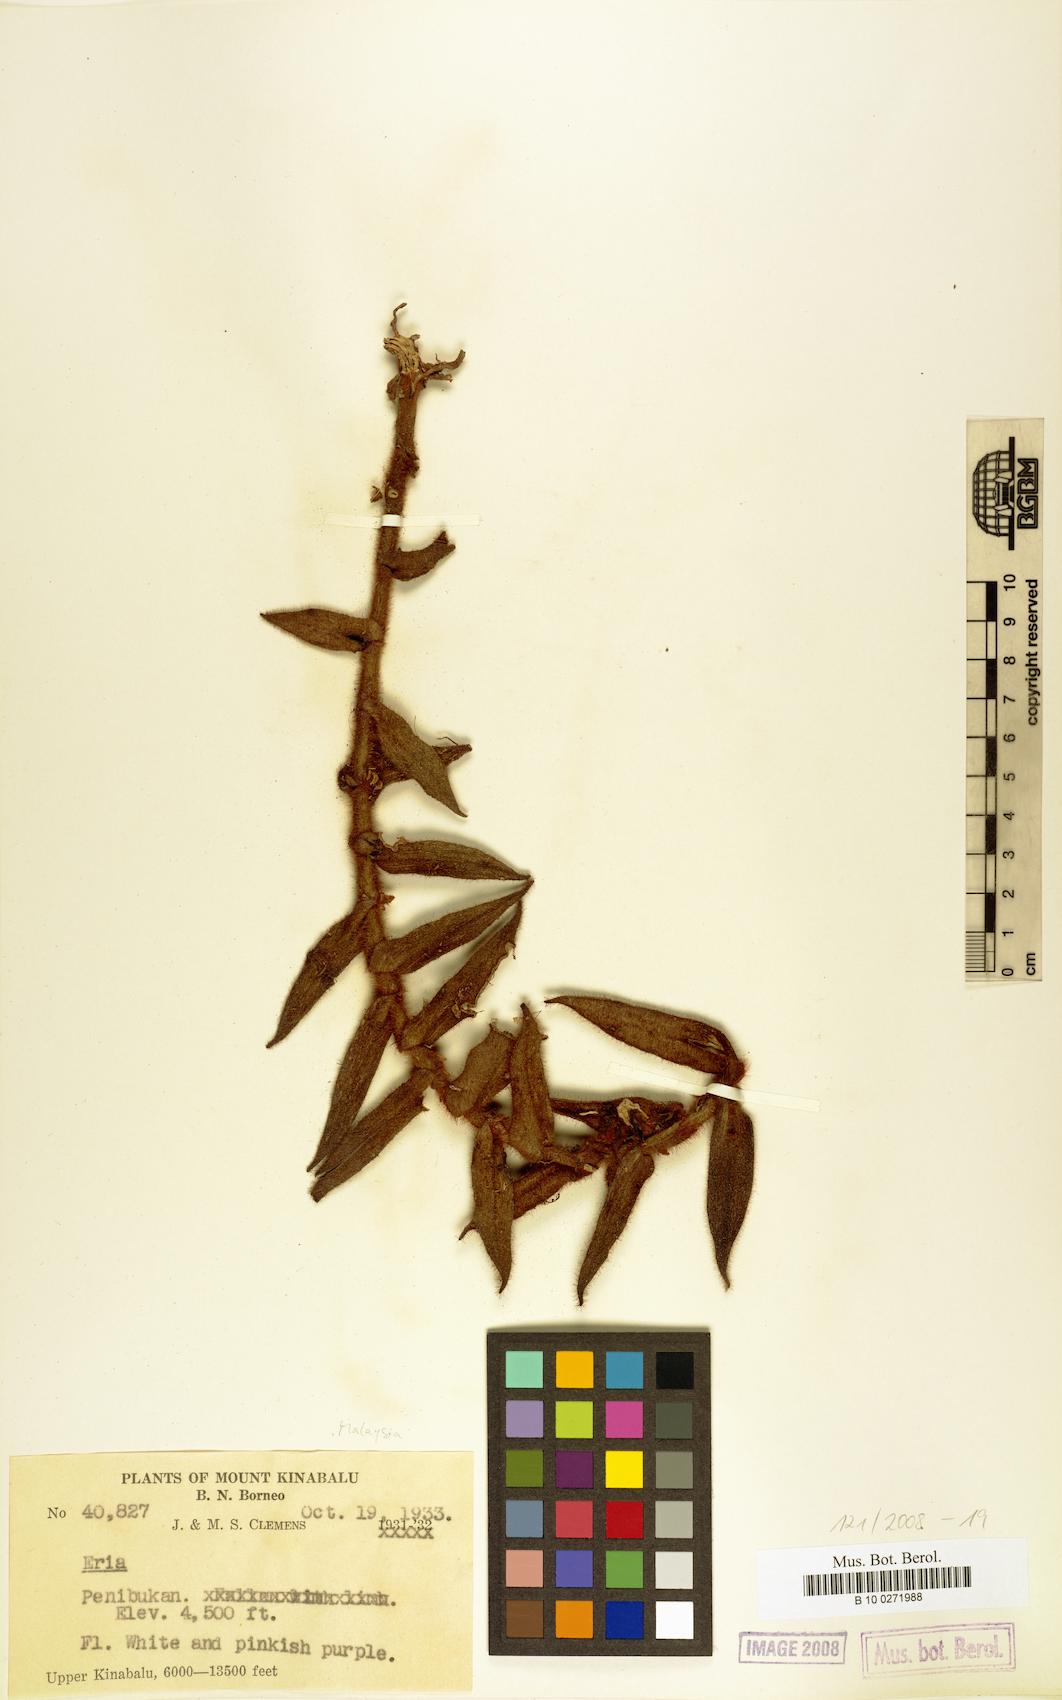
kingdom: Plantae
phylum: Tracheophyta
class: Liliopsida
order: Asparagales
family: Orchidaceae
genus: Eria
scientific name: Eria
